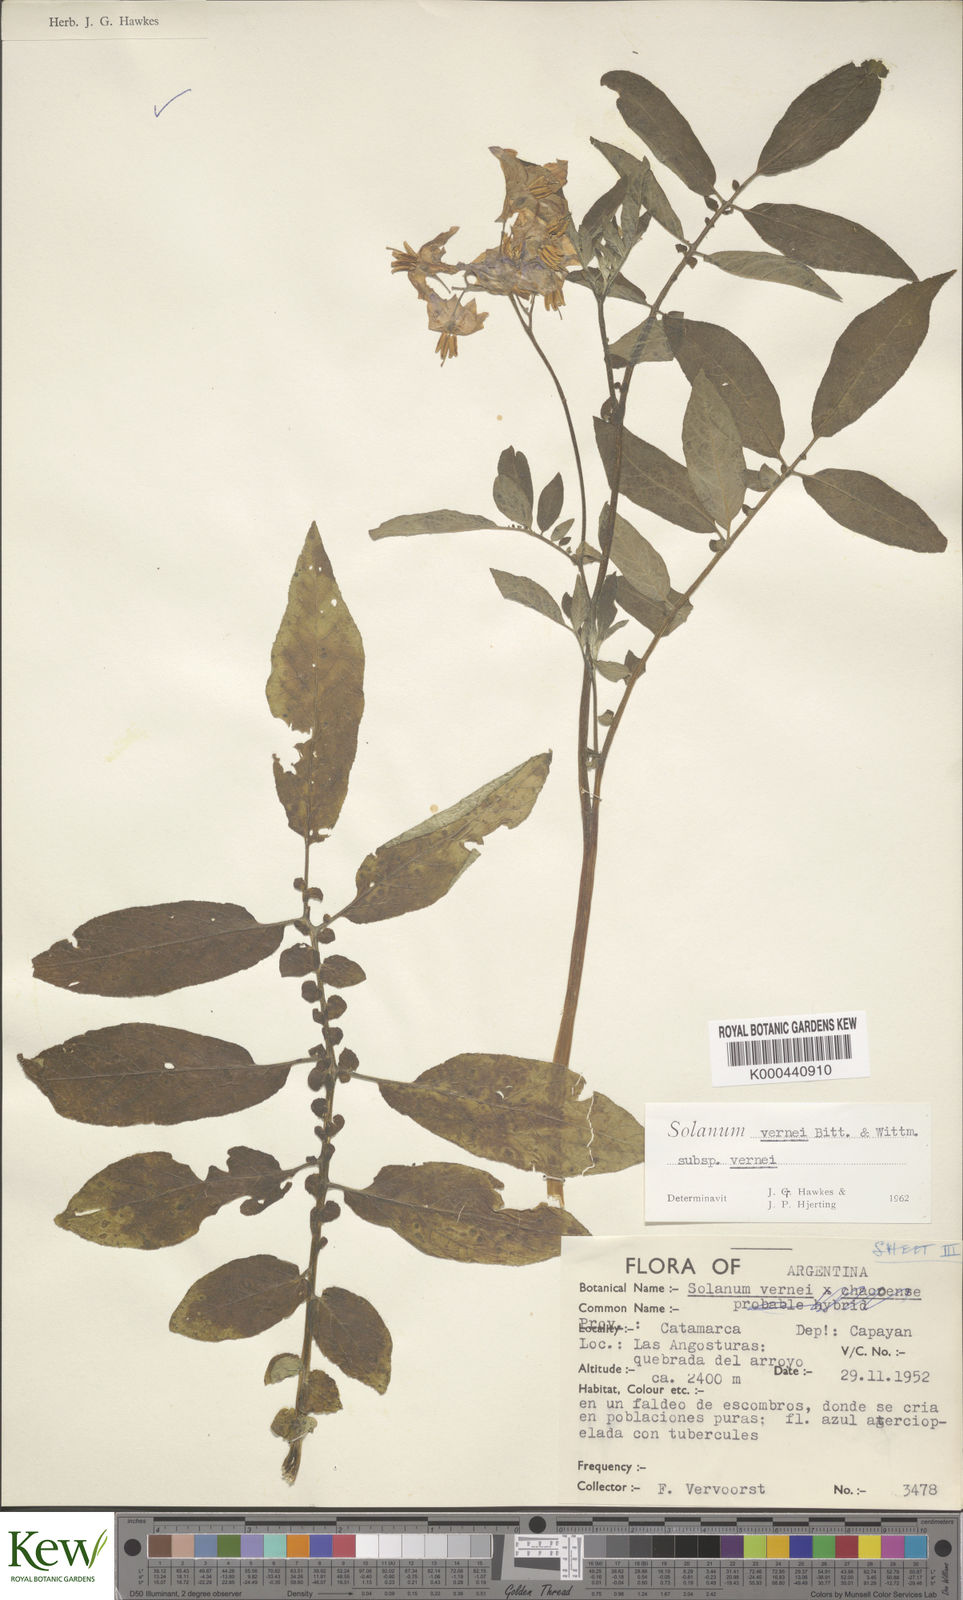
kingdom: Plantae
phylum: Tracheophyta
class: Magnoliopsida
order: Solanales
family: Solanaceae
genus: Solanum
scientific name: Solanum vernei
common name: Purple potato
